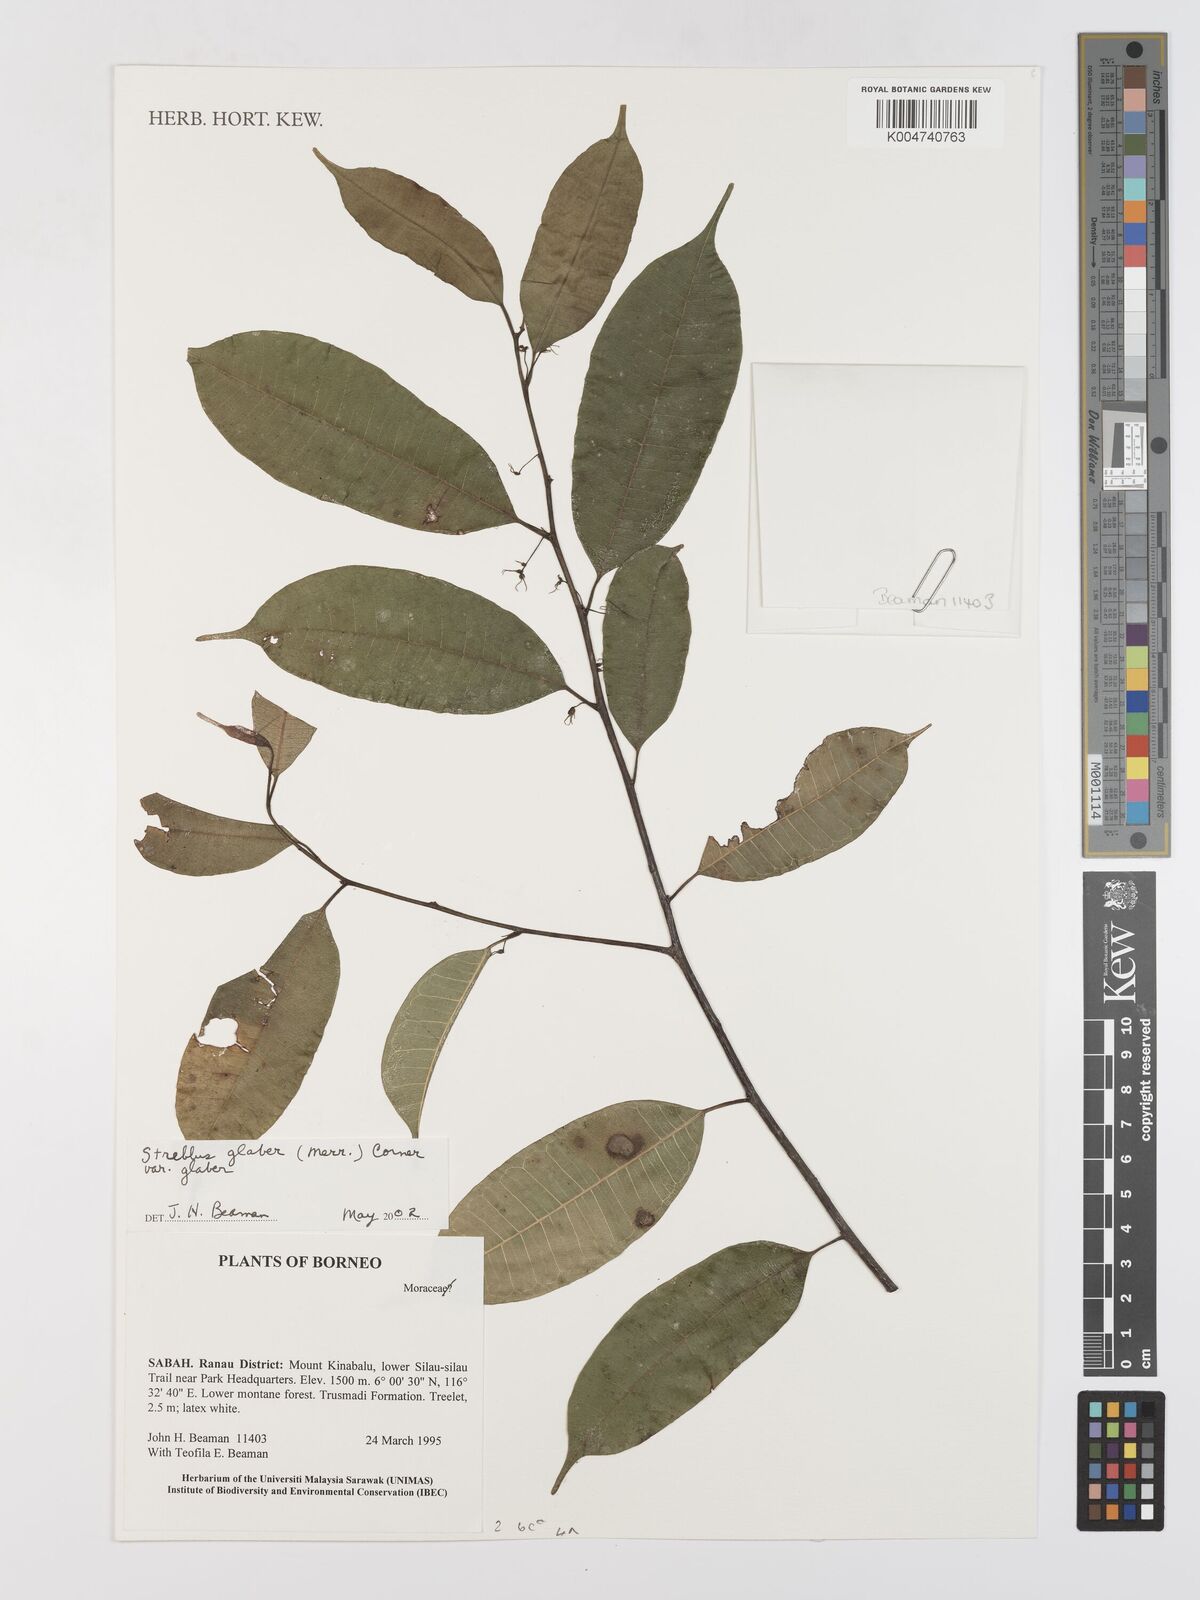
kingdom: Plantae
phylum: Tracheophyta
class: Magnoliopsida
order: Rosales
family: Moraceae
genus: Paratrophis
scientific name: Paratrophis glabra
